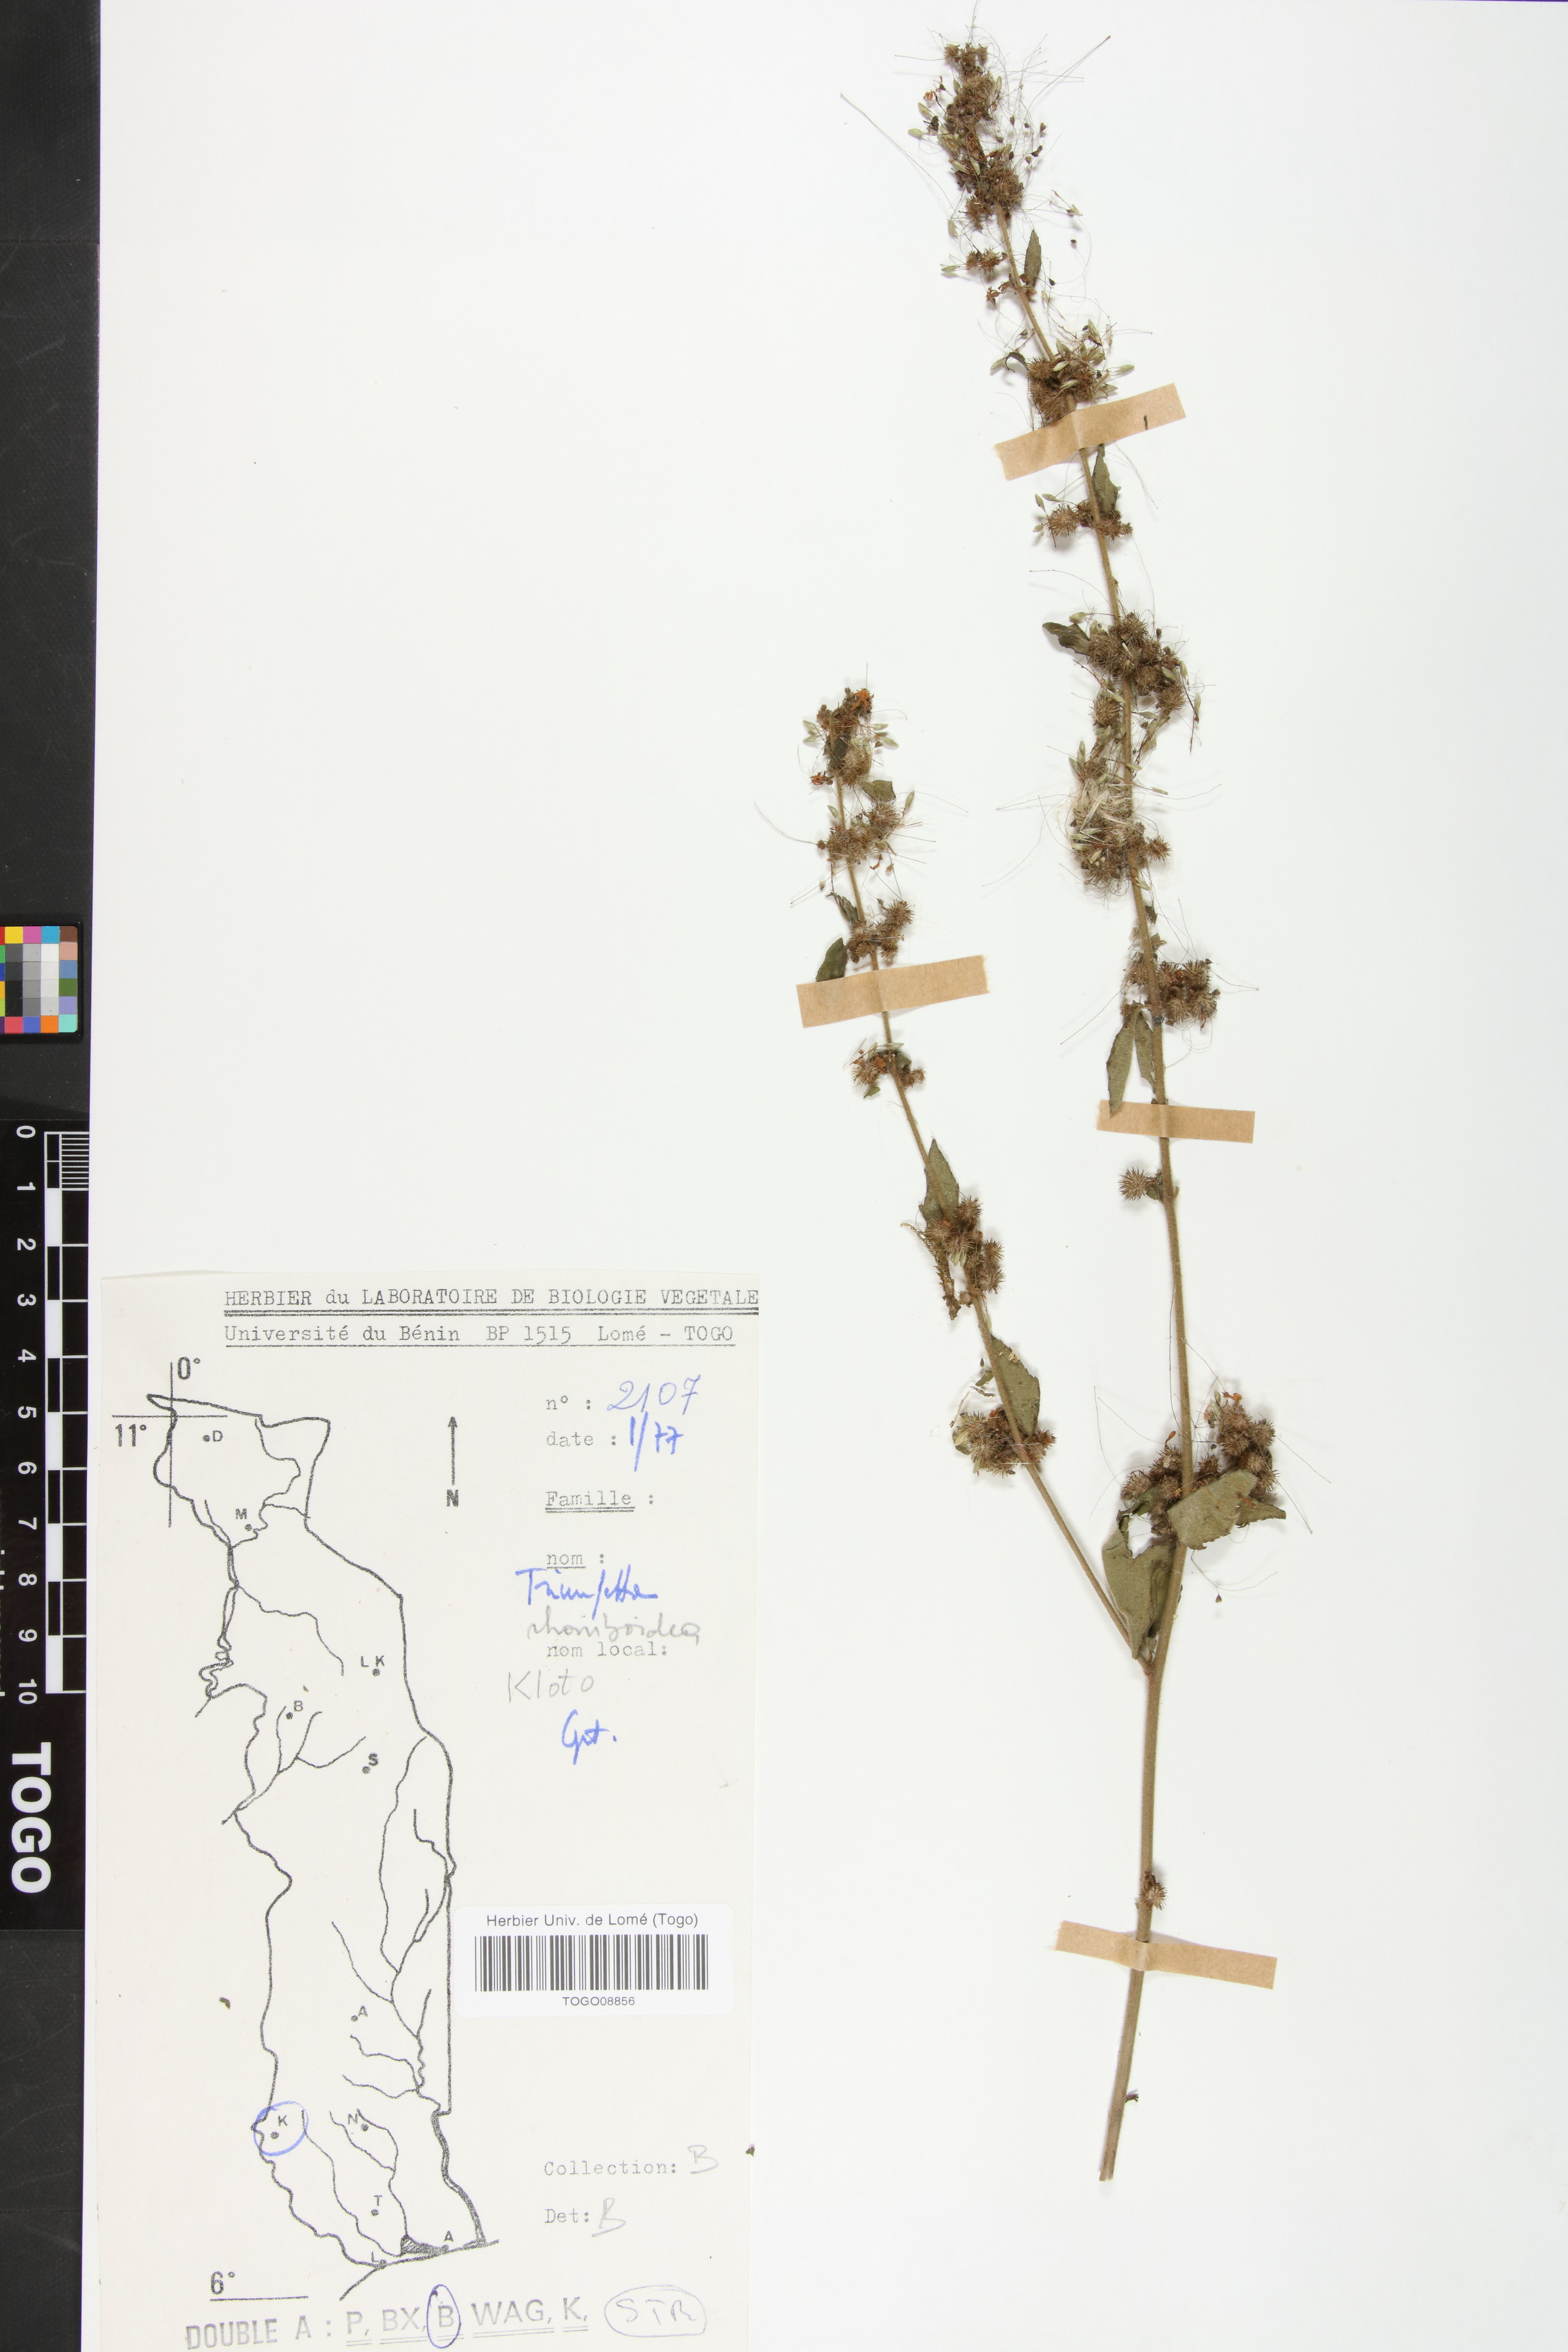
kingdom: Plantae
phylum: Tracheophyta
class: Magnoliopsida
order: Malvales
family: Malvaceae
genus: Triumfetta
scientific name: Triumfetta rhomboidea
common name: Diamond burbark
